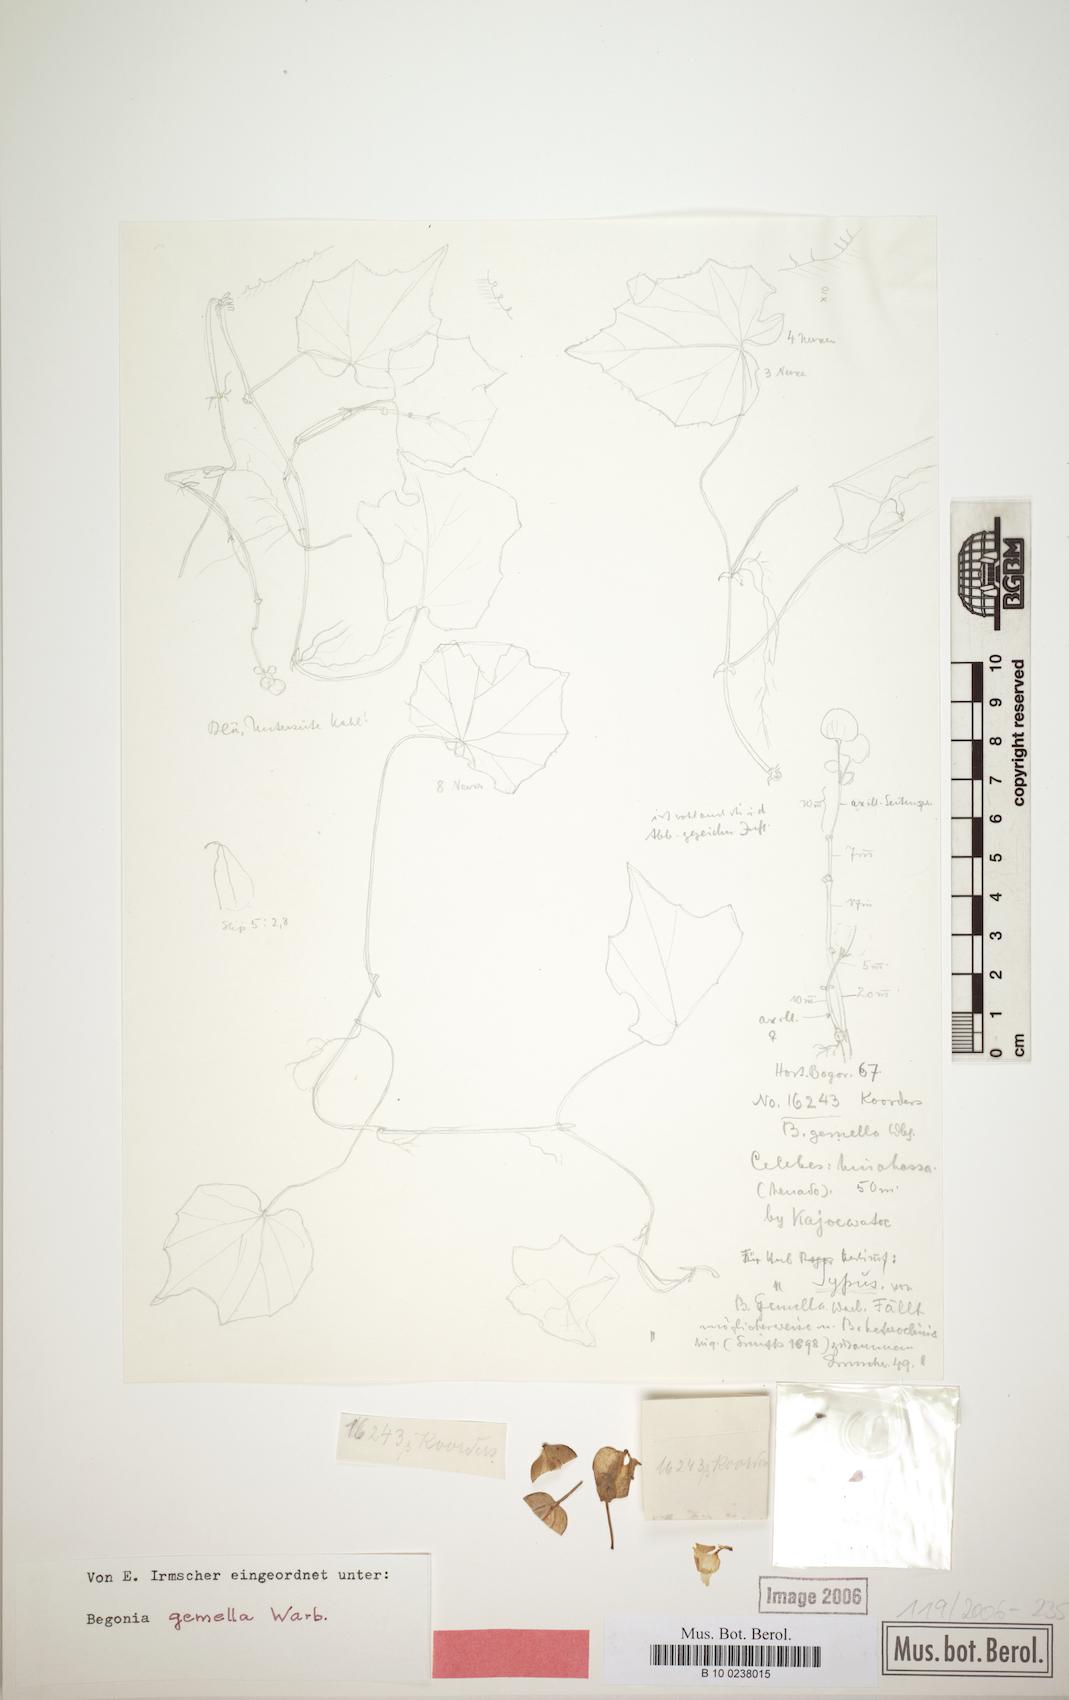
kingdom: Plantae
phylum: Tracheophyta
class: Magnoliopsida
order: Cucurbitales
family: Begoniaceae
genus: Begonia
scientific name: Begonia gemella
